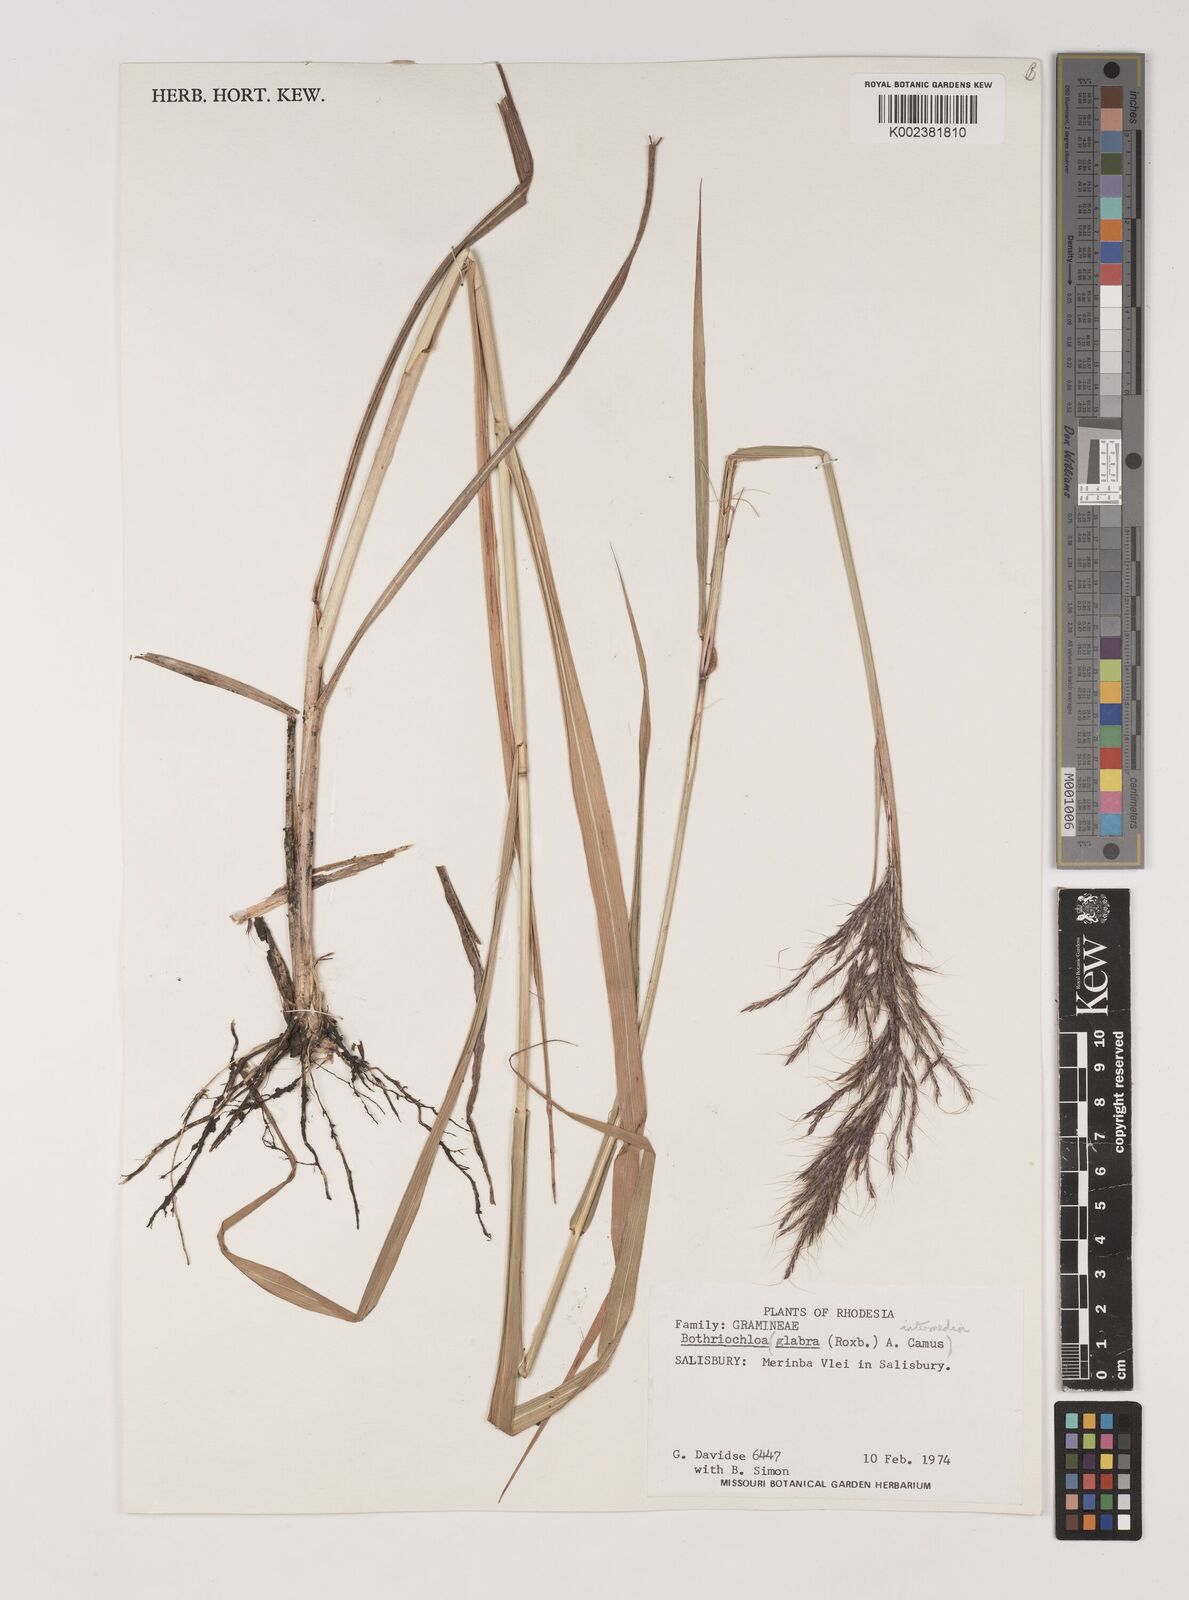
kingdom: Plantae
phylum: Tracheophyta
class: Liliopsida
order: Poales
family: Poaceae
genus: Bothriochloa
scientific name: Bothriochloa bladhii
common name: Caucasian bluestem
